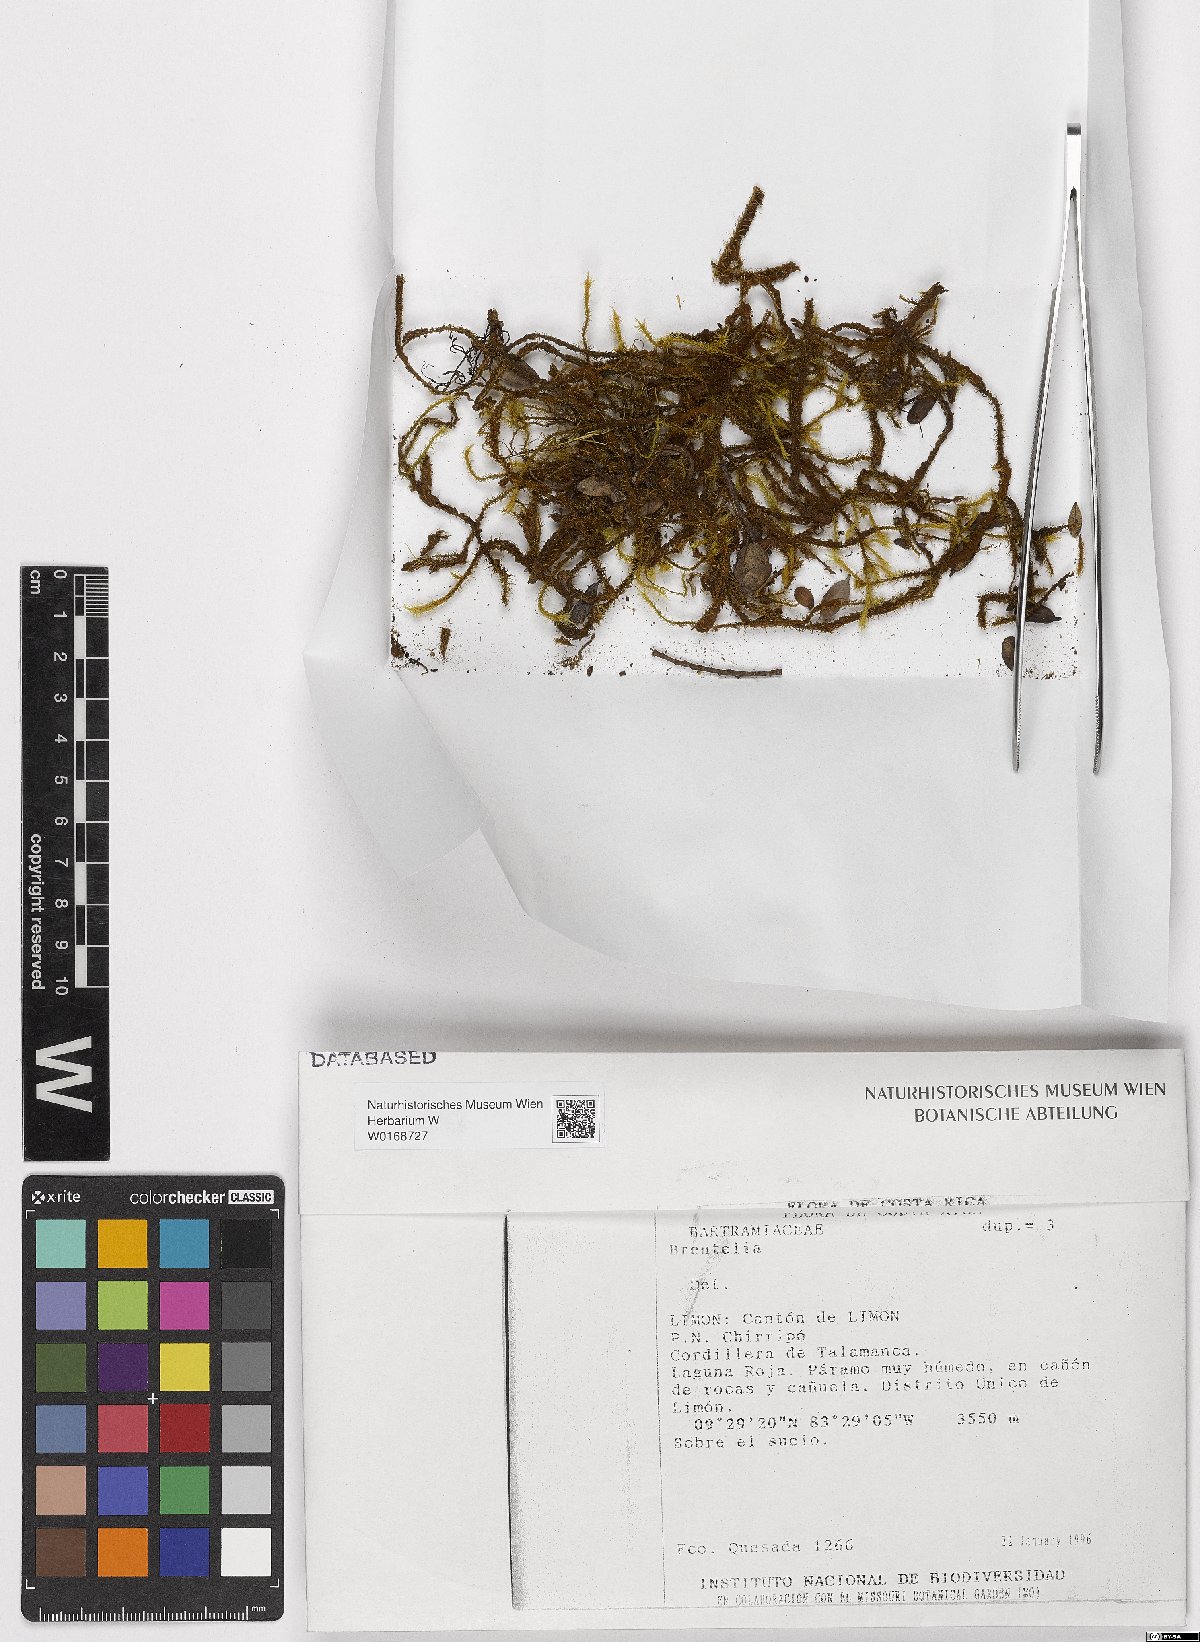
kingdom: Plantae
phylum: Bryophyta
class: Bryopsida
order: Bartramiales
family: Bartramiaceae
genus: Breutelia
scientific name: Breutelia
